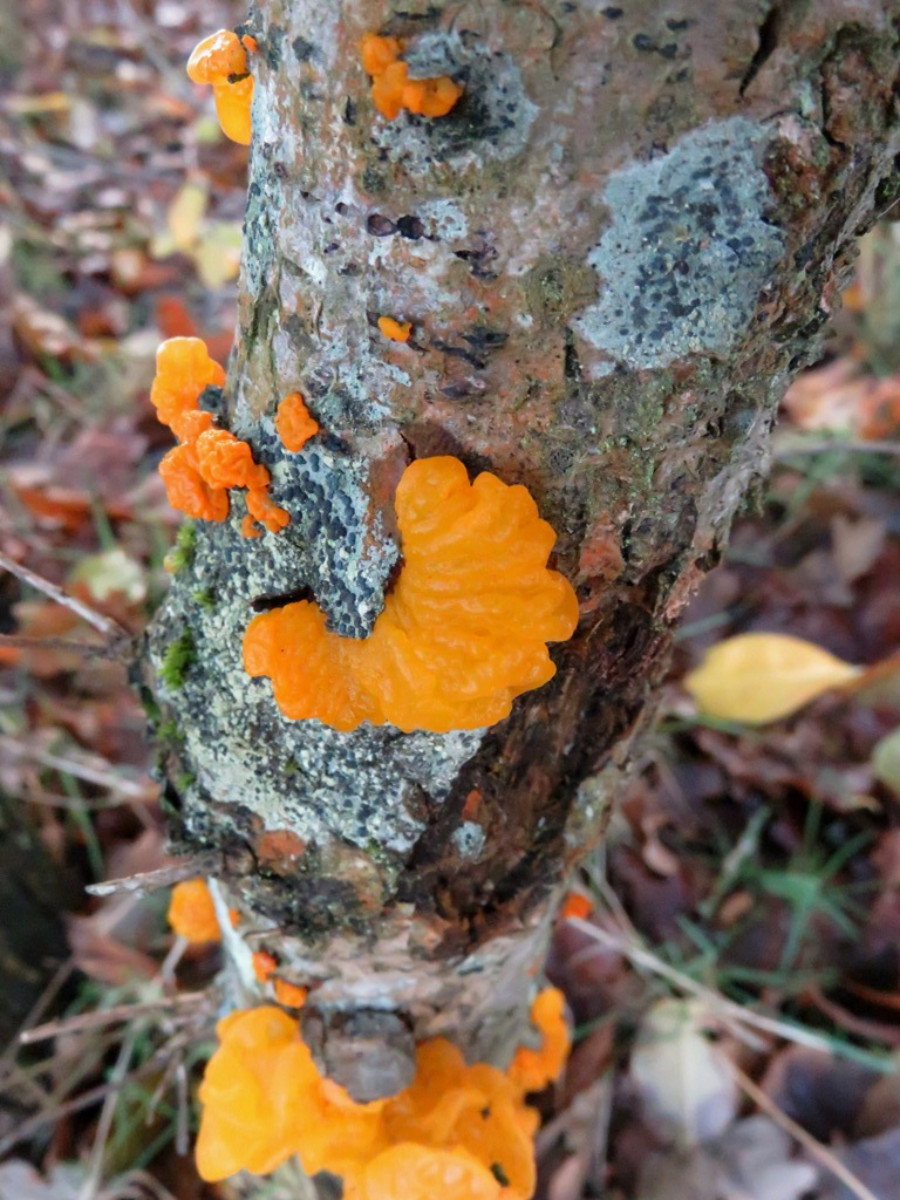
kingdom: Fungi
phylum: Basidiomycota
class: Tremellomycetes
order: Tremellales
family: Tremellaceae
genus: Tremella
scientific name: Tremella mesenterica
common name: gul bævresvamp
